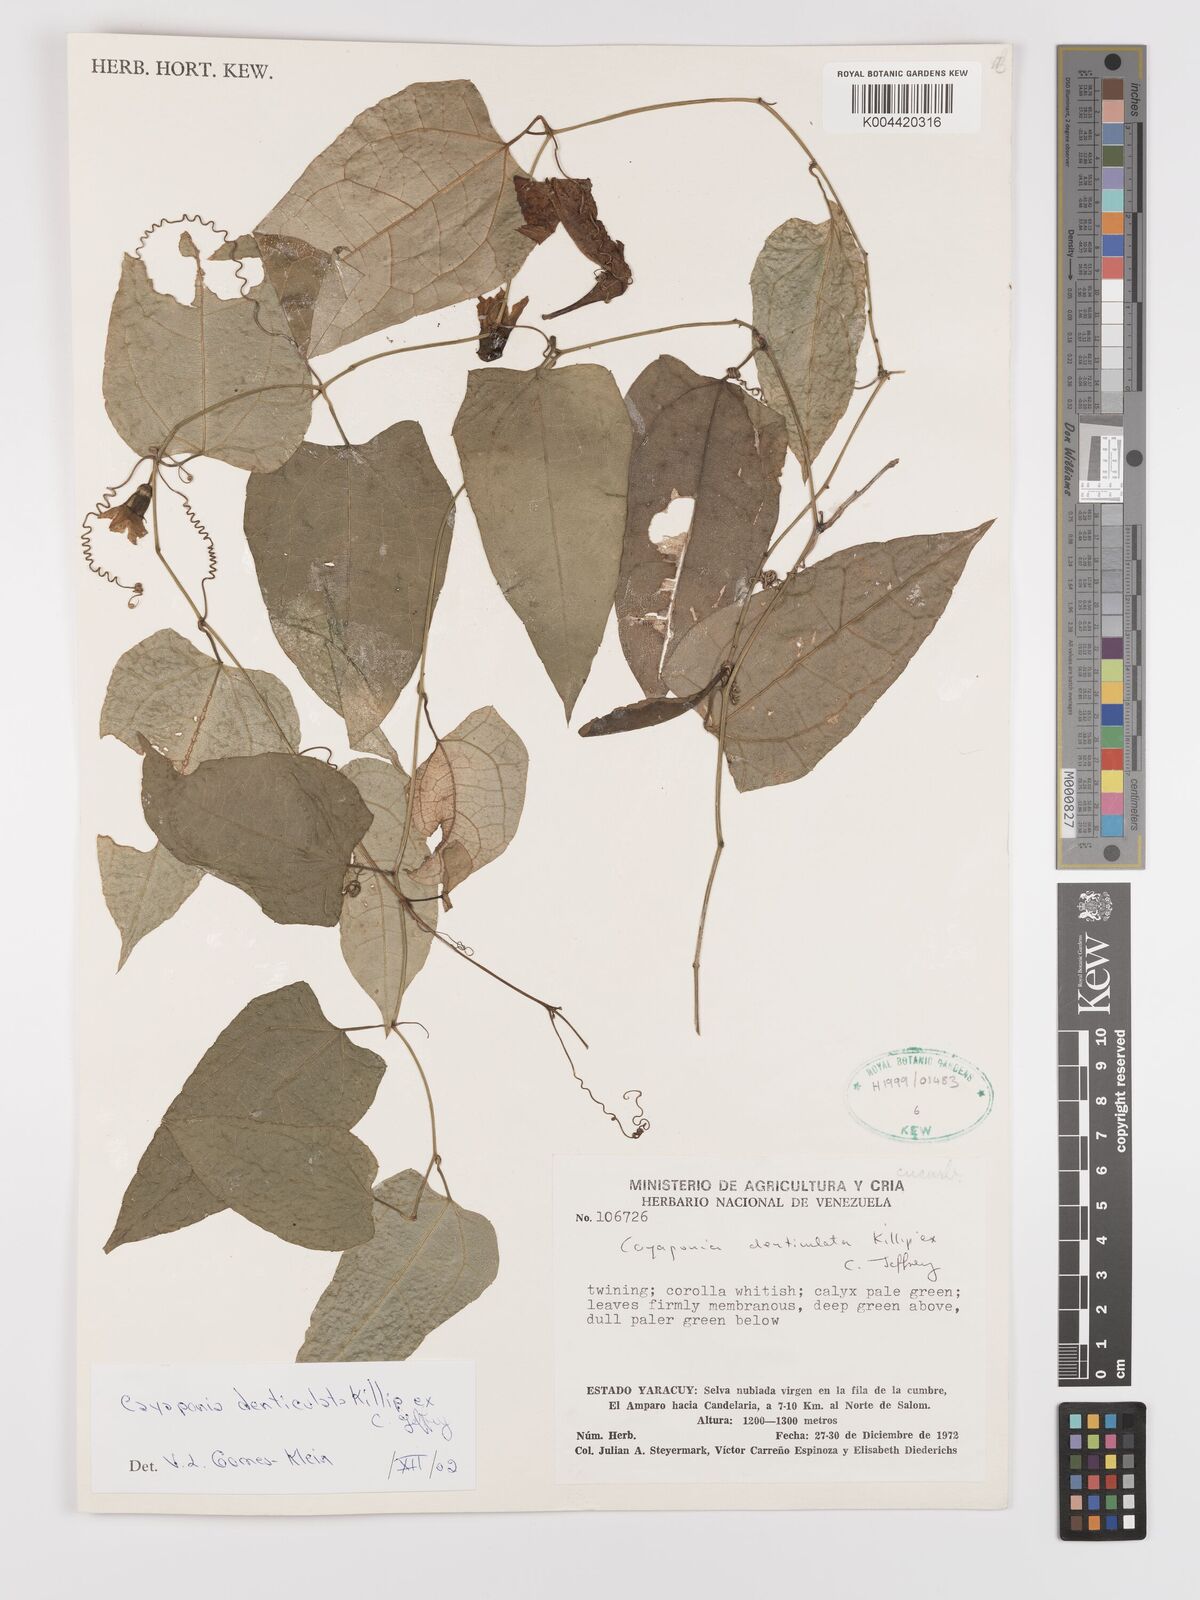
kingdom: Plantae
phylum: Tracheophyta
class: Magnoliopsida
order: Cucurbitales
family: Cucurbitaceae
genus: Cayaponia
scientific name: Cayaponia denticulata
